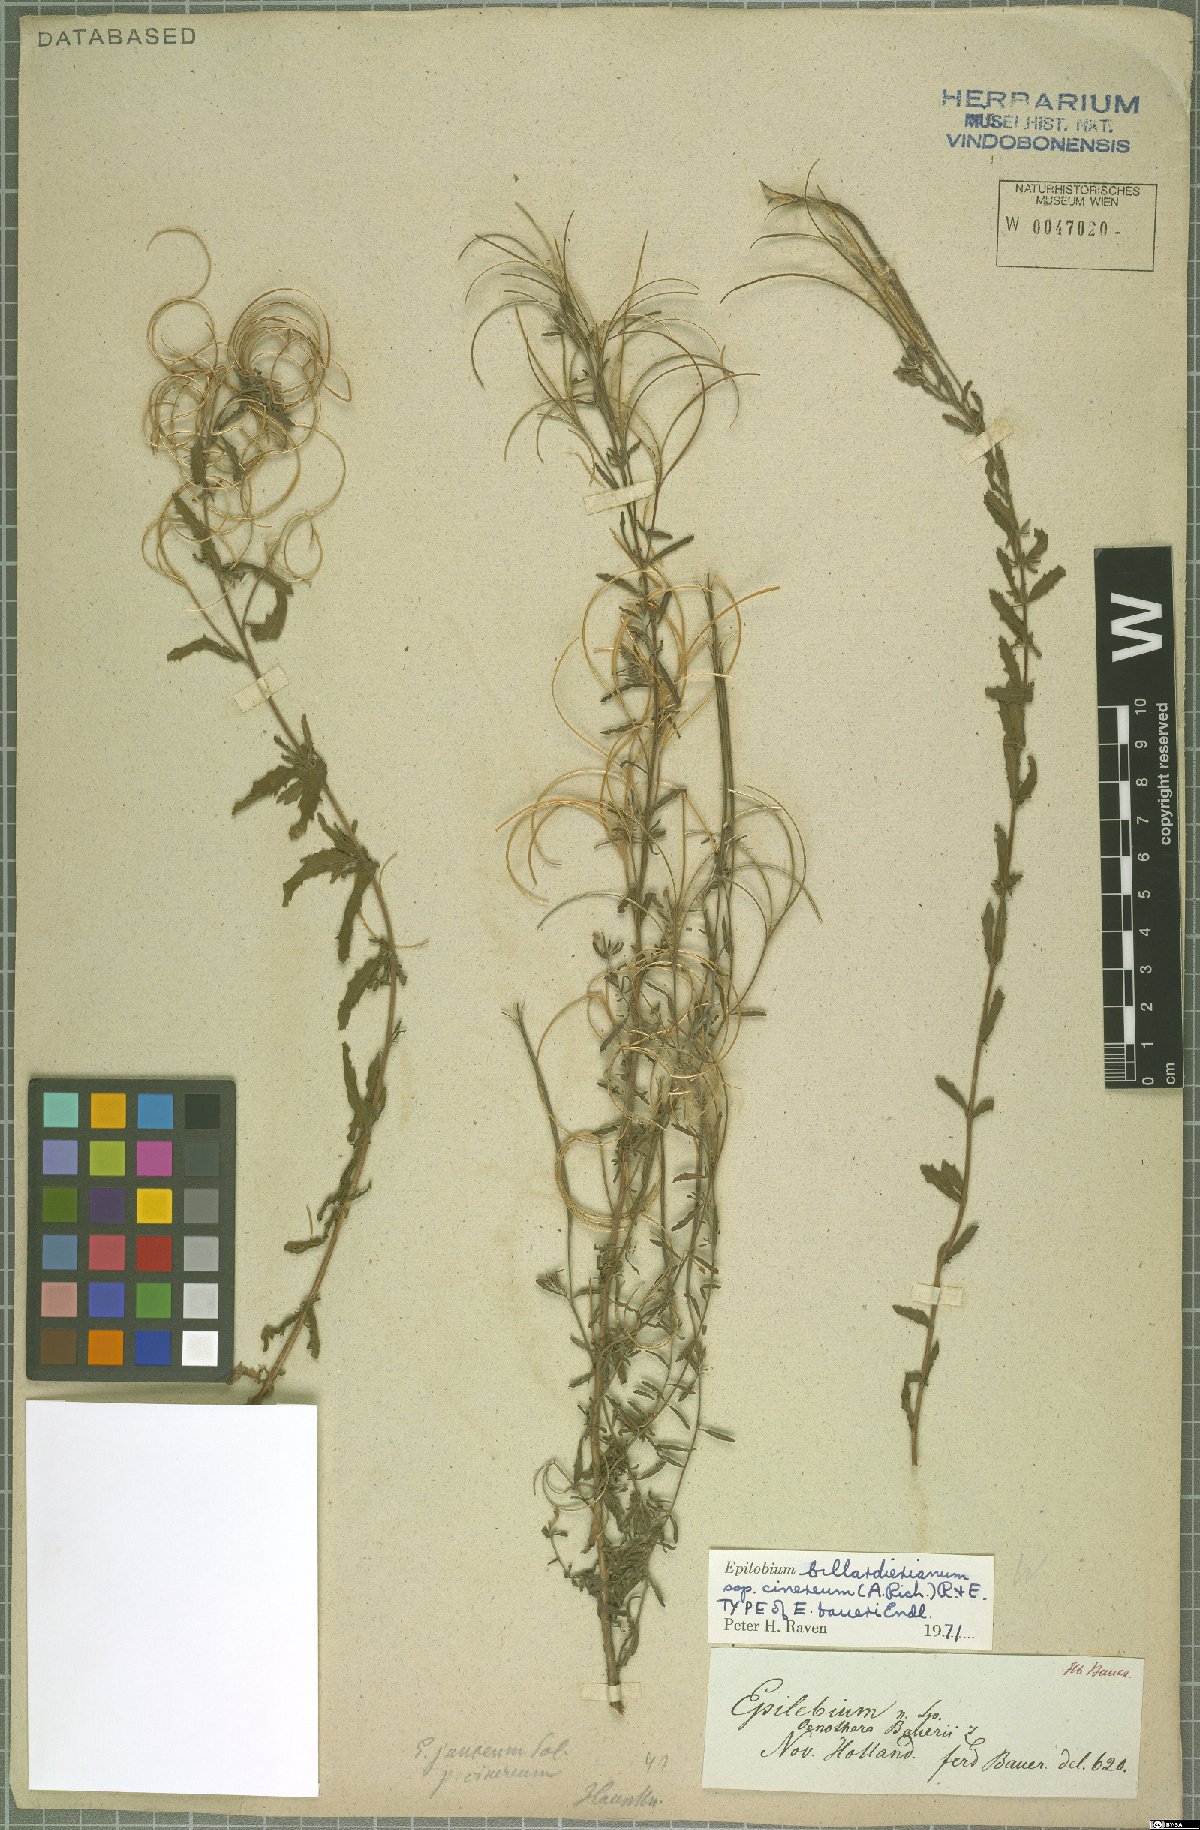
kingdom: Plantae
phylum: Tracheophyta
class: Magnoliopsida
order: Myrtales
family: Onagraceae
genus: Epilobium
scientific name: Epilobium billardierianum
